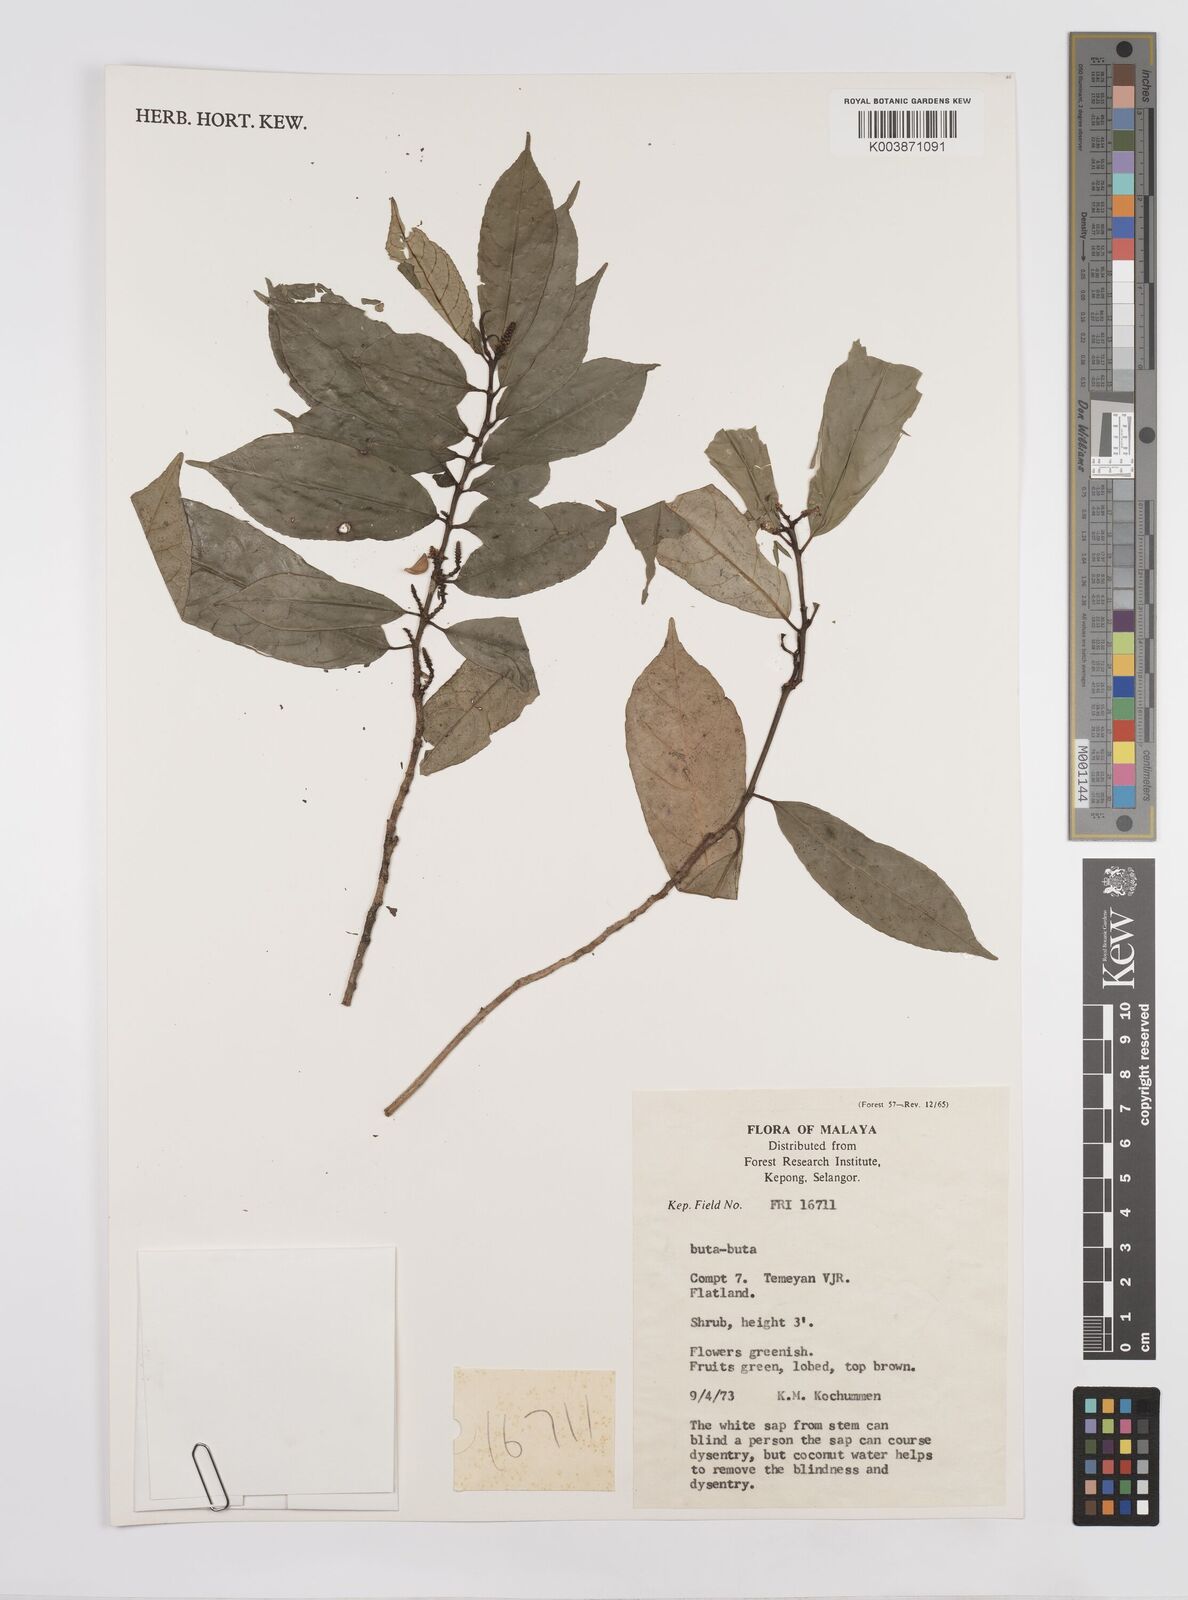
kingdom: Plantae
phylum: Tracheophyta
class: Magnoliopsida
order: Malpighiales
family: Euphorbiaceae
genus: Triadica
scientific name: Triadica cochinchinensis
